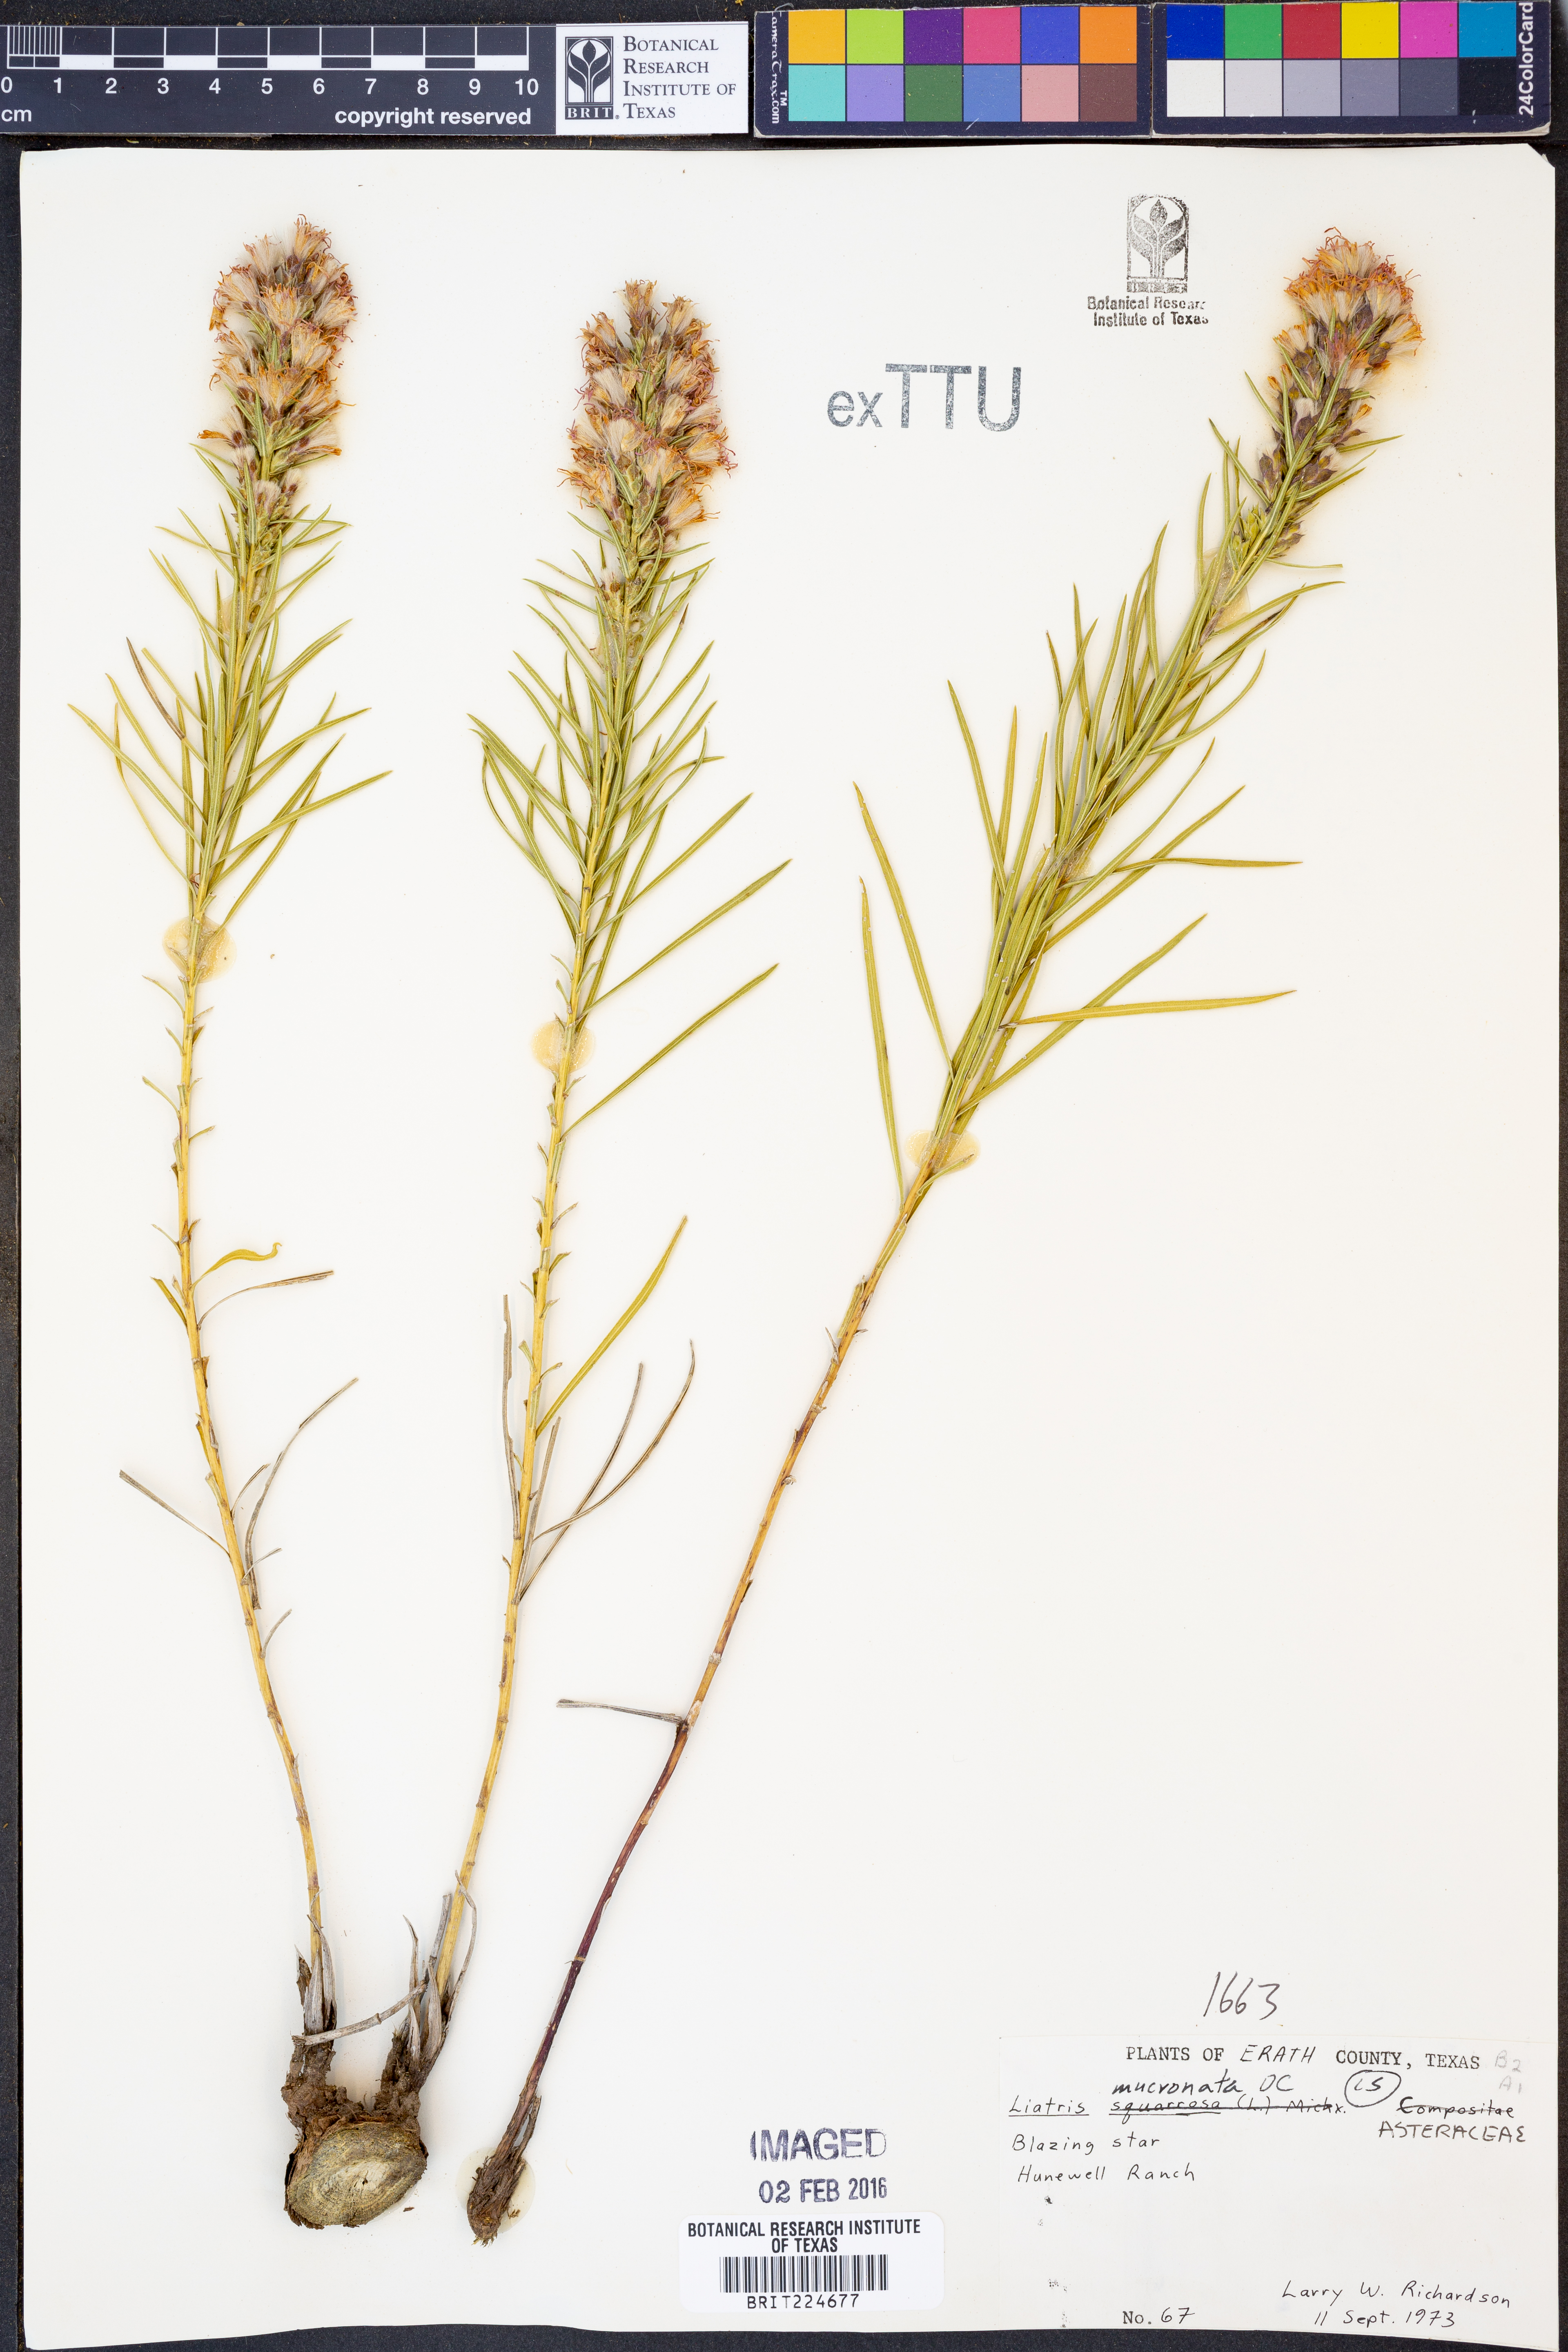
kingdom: Plantae
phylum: Tracheophyta
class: Magnoliopsida
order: Asterales
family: Asteraceae
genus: Liatris
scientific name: Liatris mucronata
